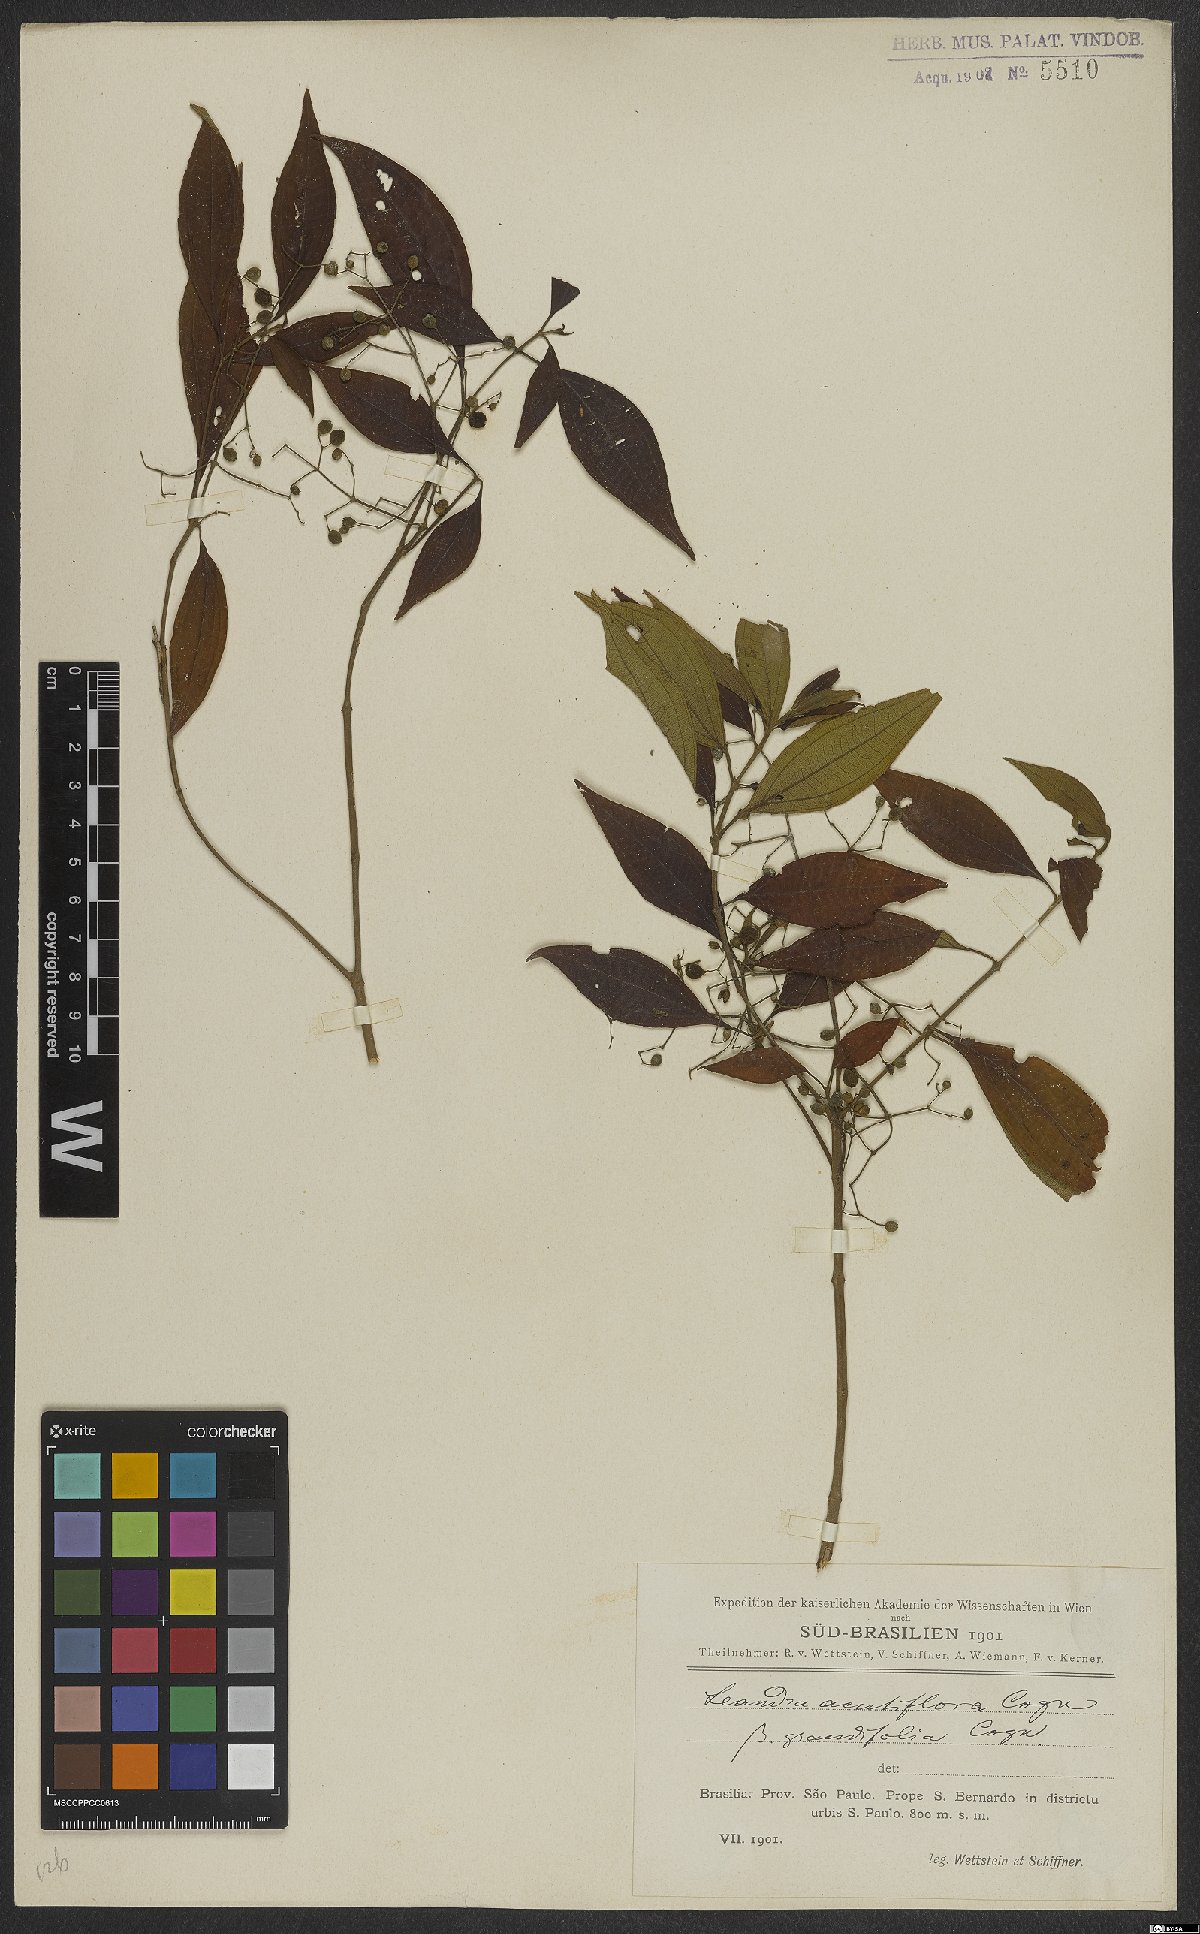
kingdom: Plantae
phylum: Tracheophyta
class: Magnoliopsida
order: Myrtales
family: Melastomataceae
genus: Miconia
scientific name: Miconia acutiflora
